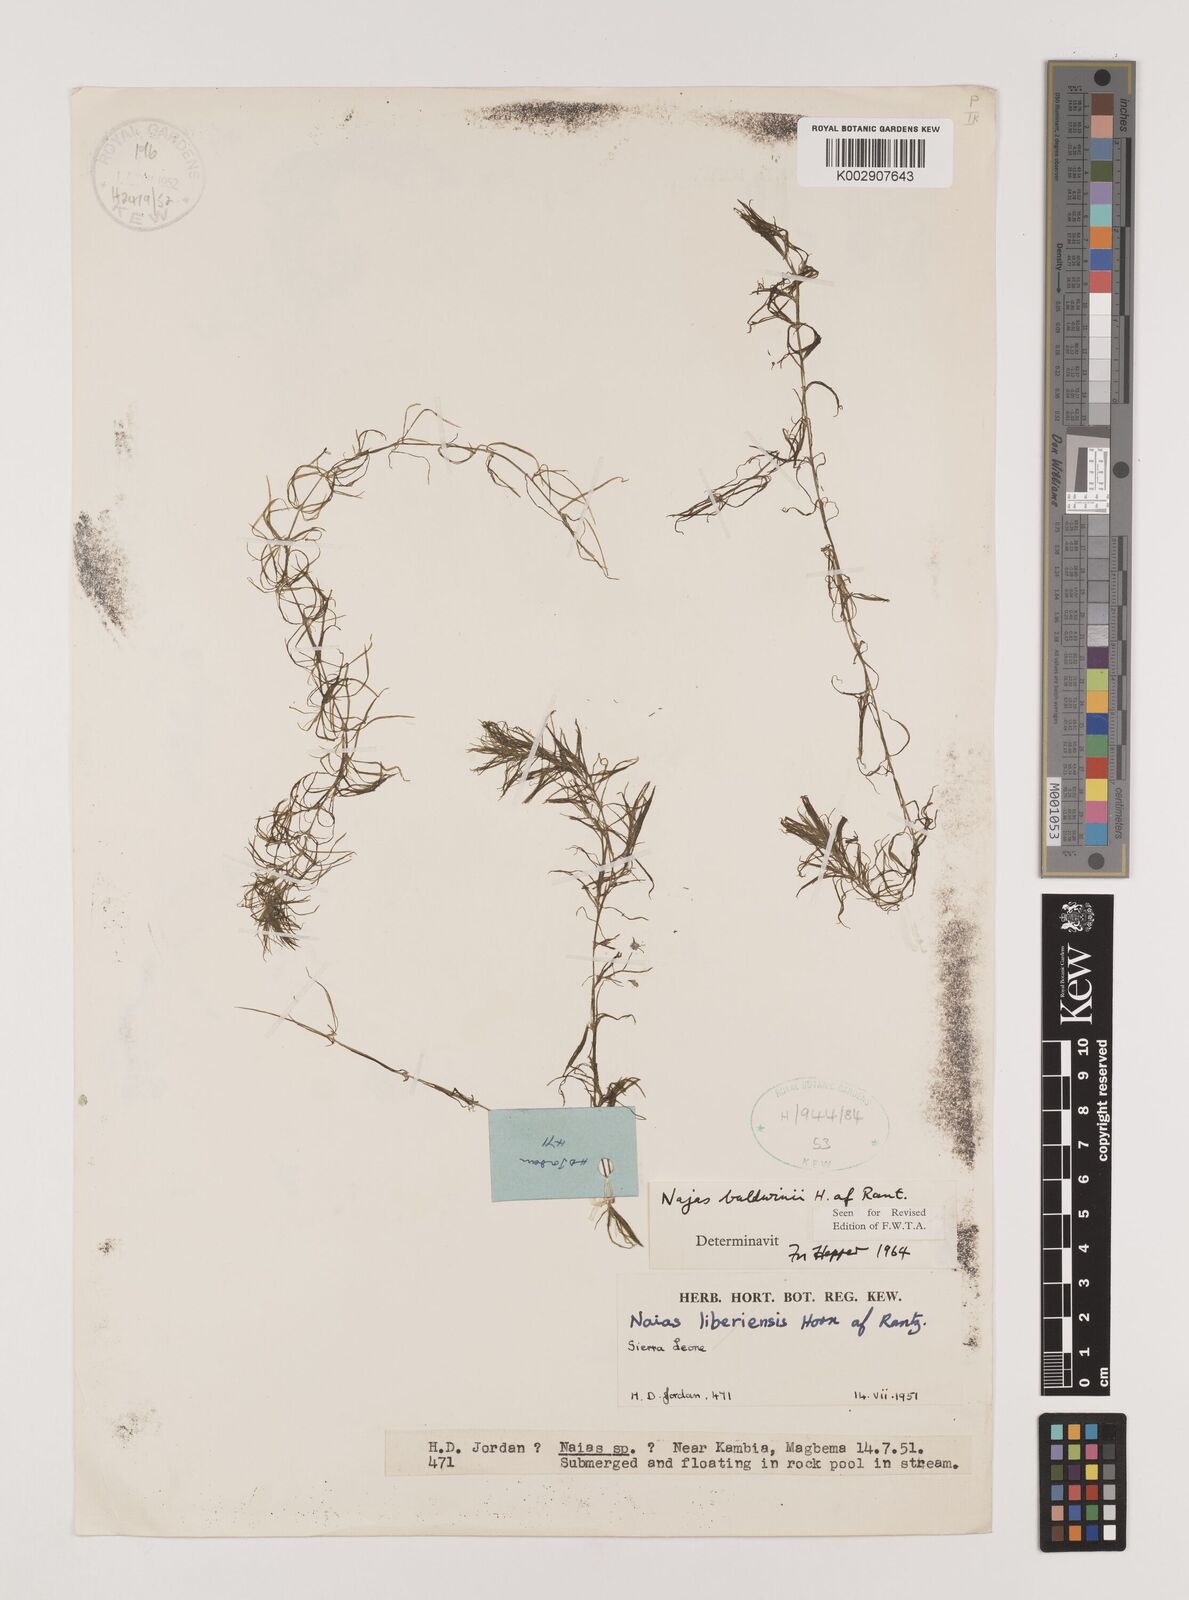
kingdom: Plantae
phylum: Tracheophyta
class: Liliopsida
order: Alismatales
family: Hydrocharitaceae
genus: Najas
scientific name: Najas baldwinii
